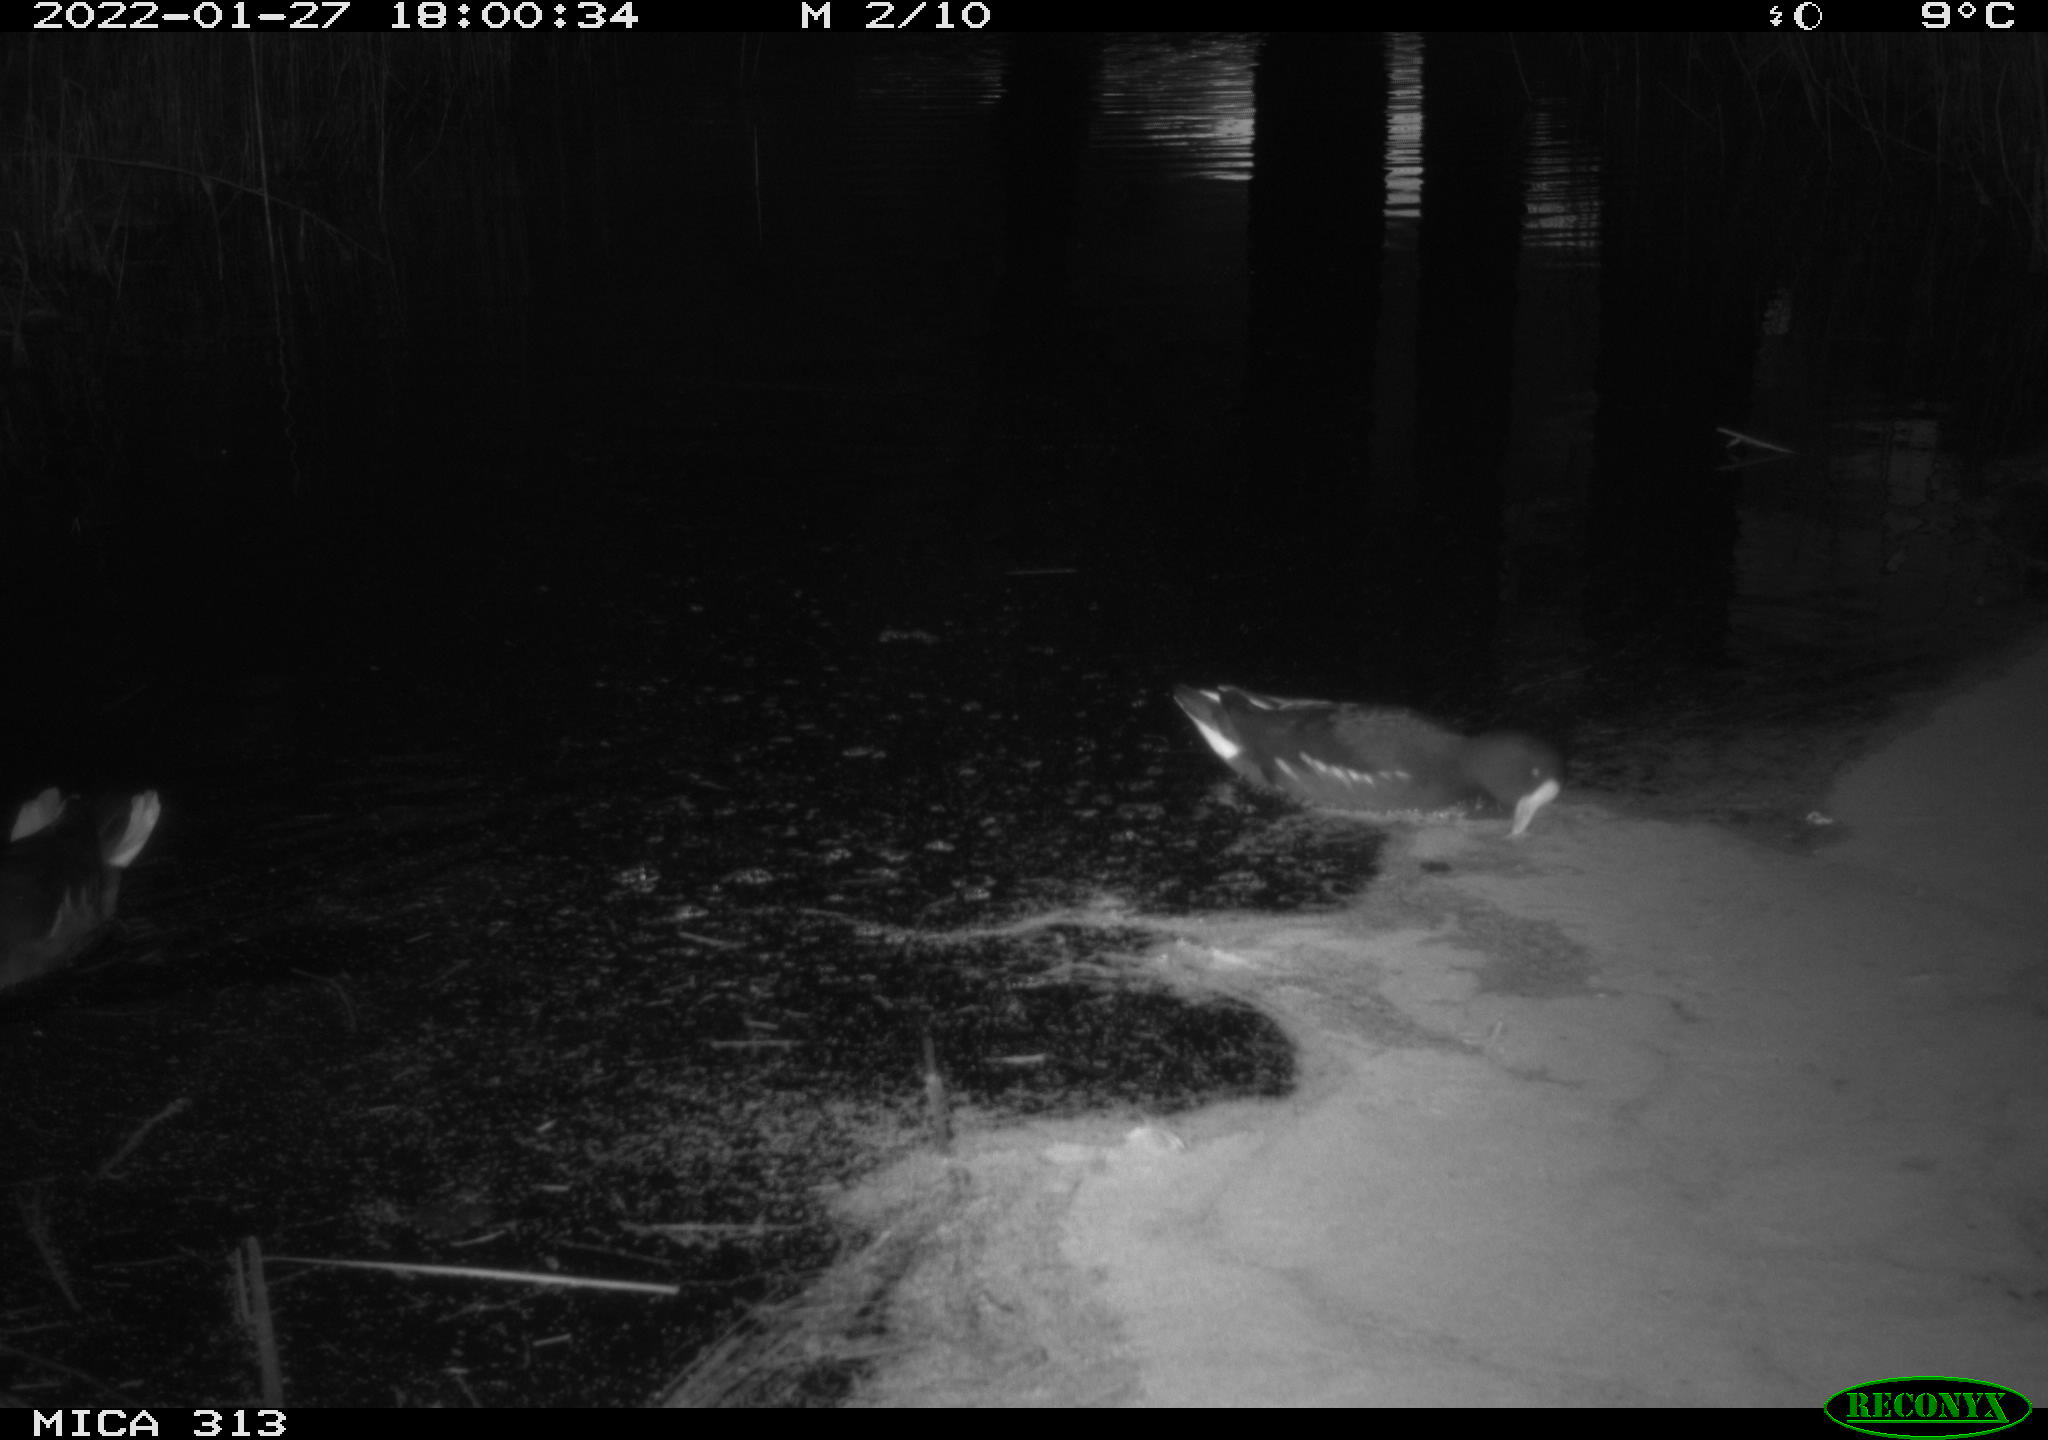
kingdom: Animalia
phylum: Chordata
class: Aves
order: Gruiformes
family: Rallidae
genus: Gallinula
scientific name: Gallinula chloropus
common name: Common moorhen
